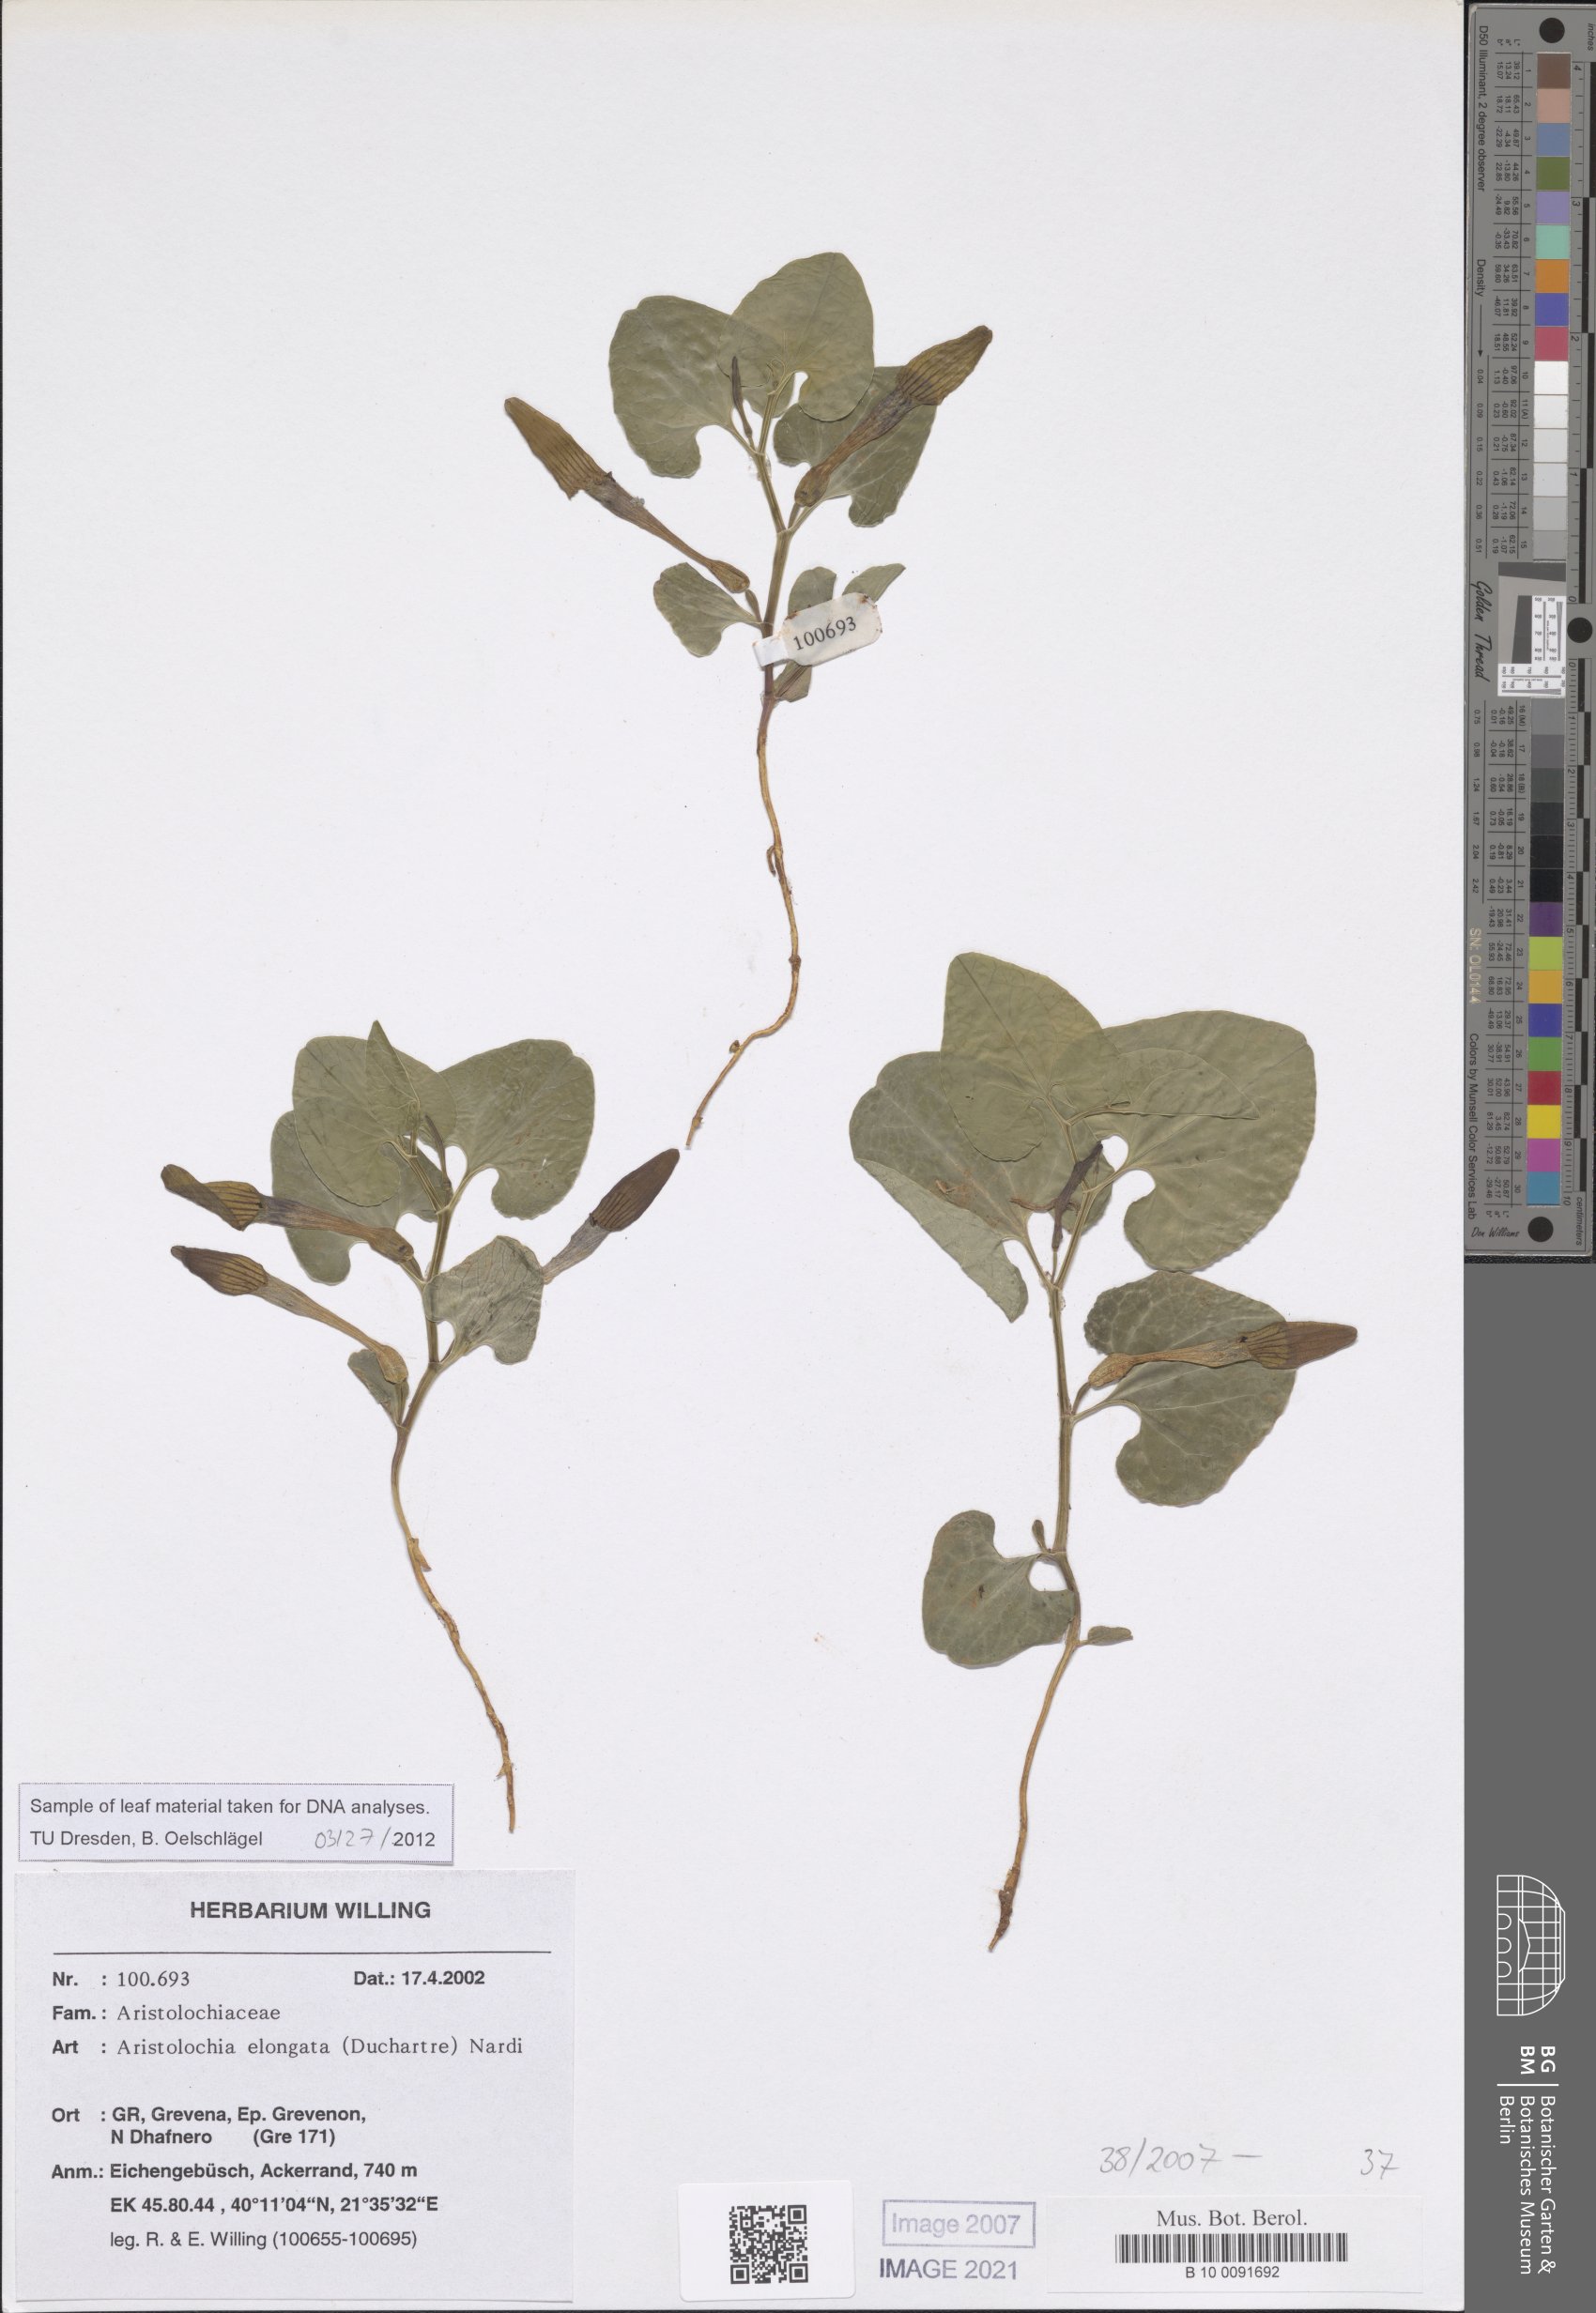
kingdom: Plantae
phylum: Tracheophyta
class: Magnoliopsida
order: Piperales
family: Aristolochiaceae
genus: Aristolochia
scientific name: Aristolochia nardiana
